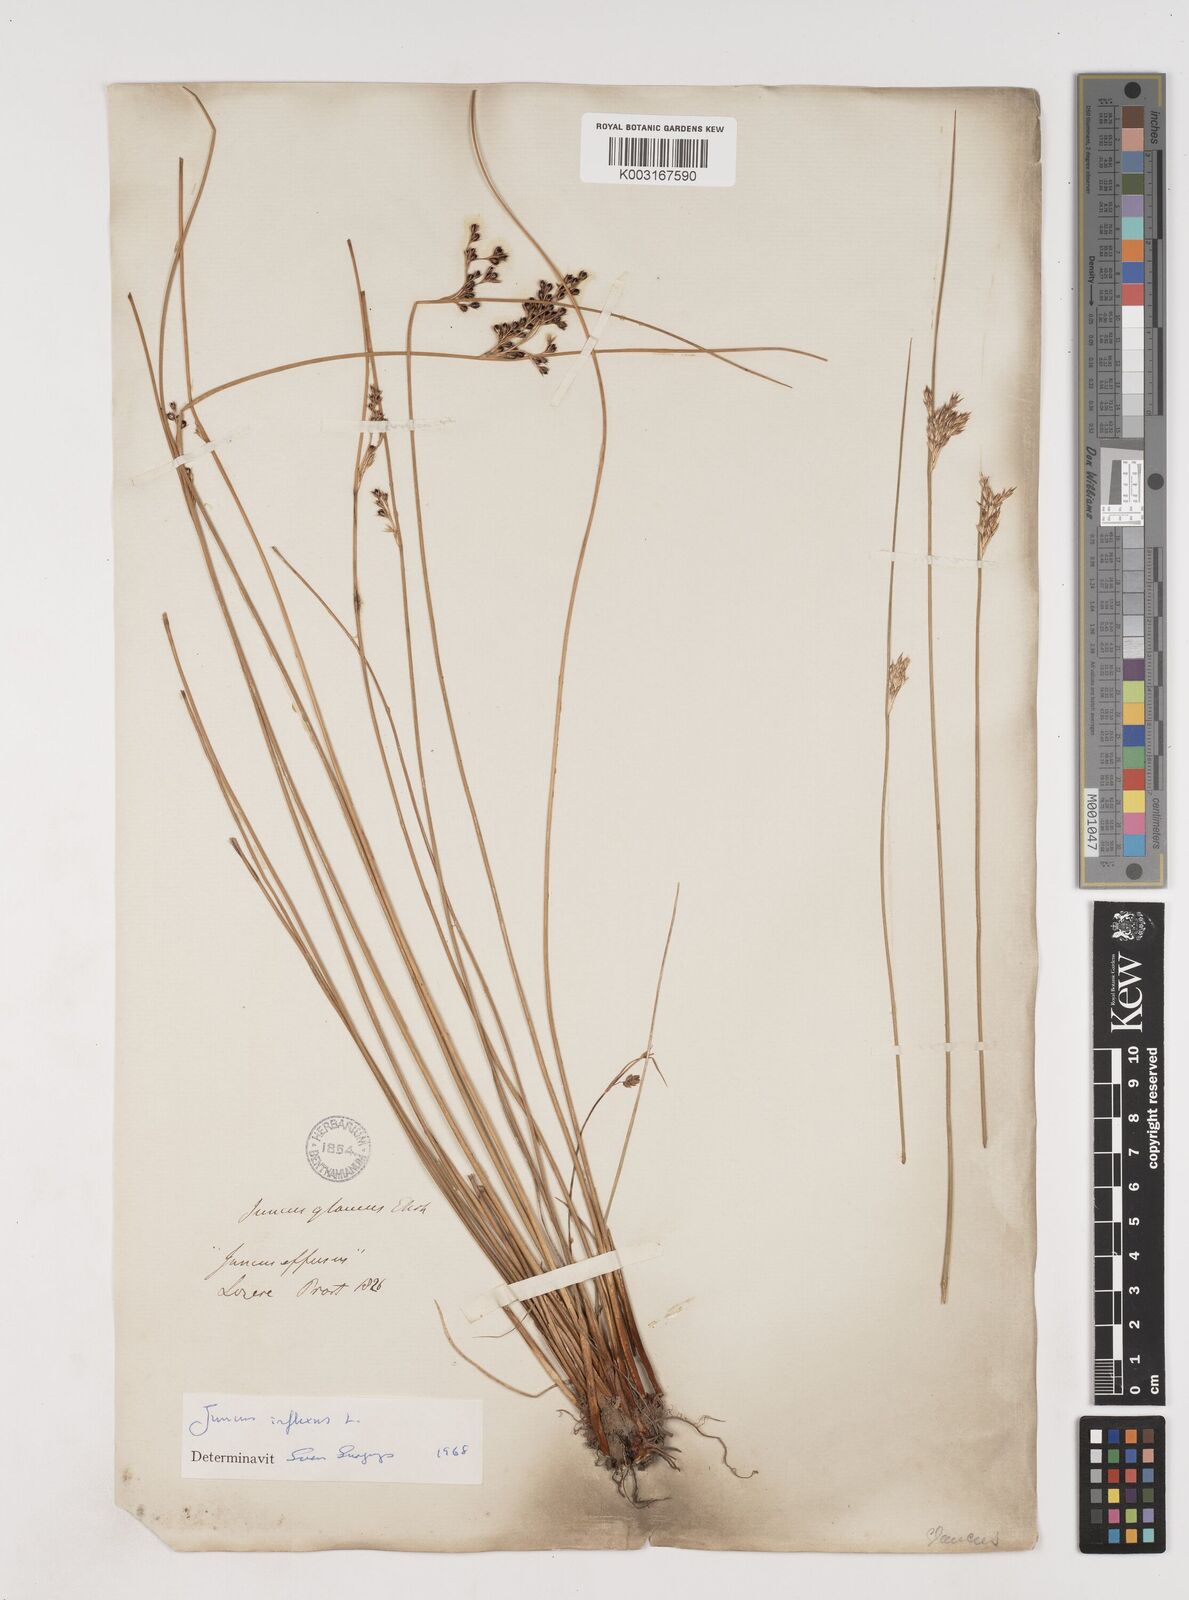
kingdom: Plantae
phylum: Tracheophyta
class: Liliopsida
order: Poales
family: Juncaceae
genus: Juncus
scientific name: Juncus inflexus
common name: Hard rush
